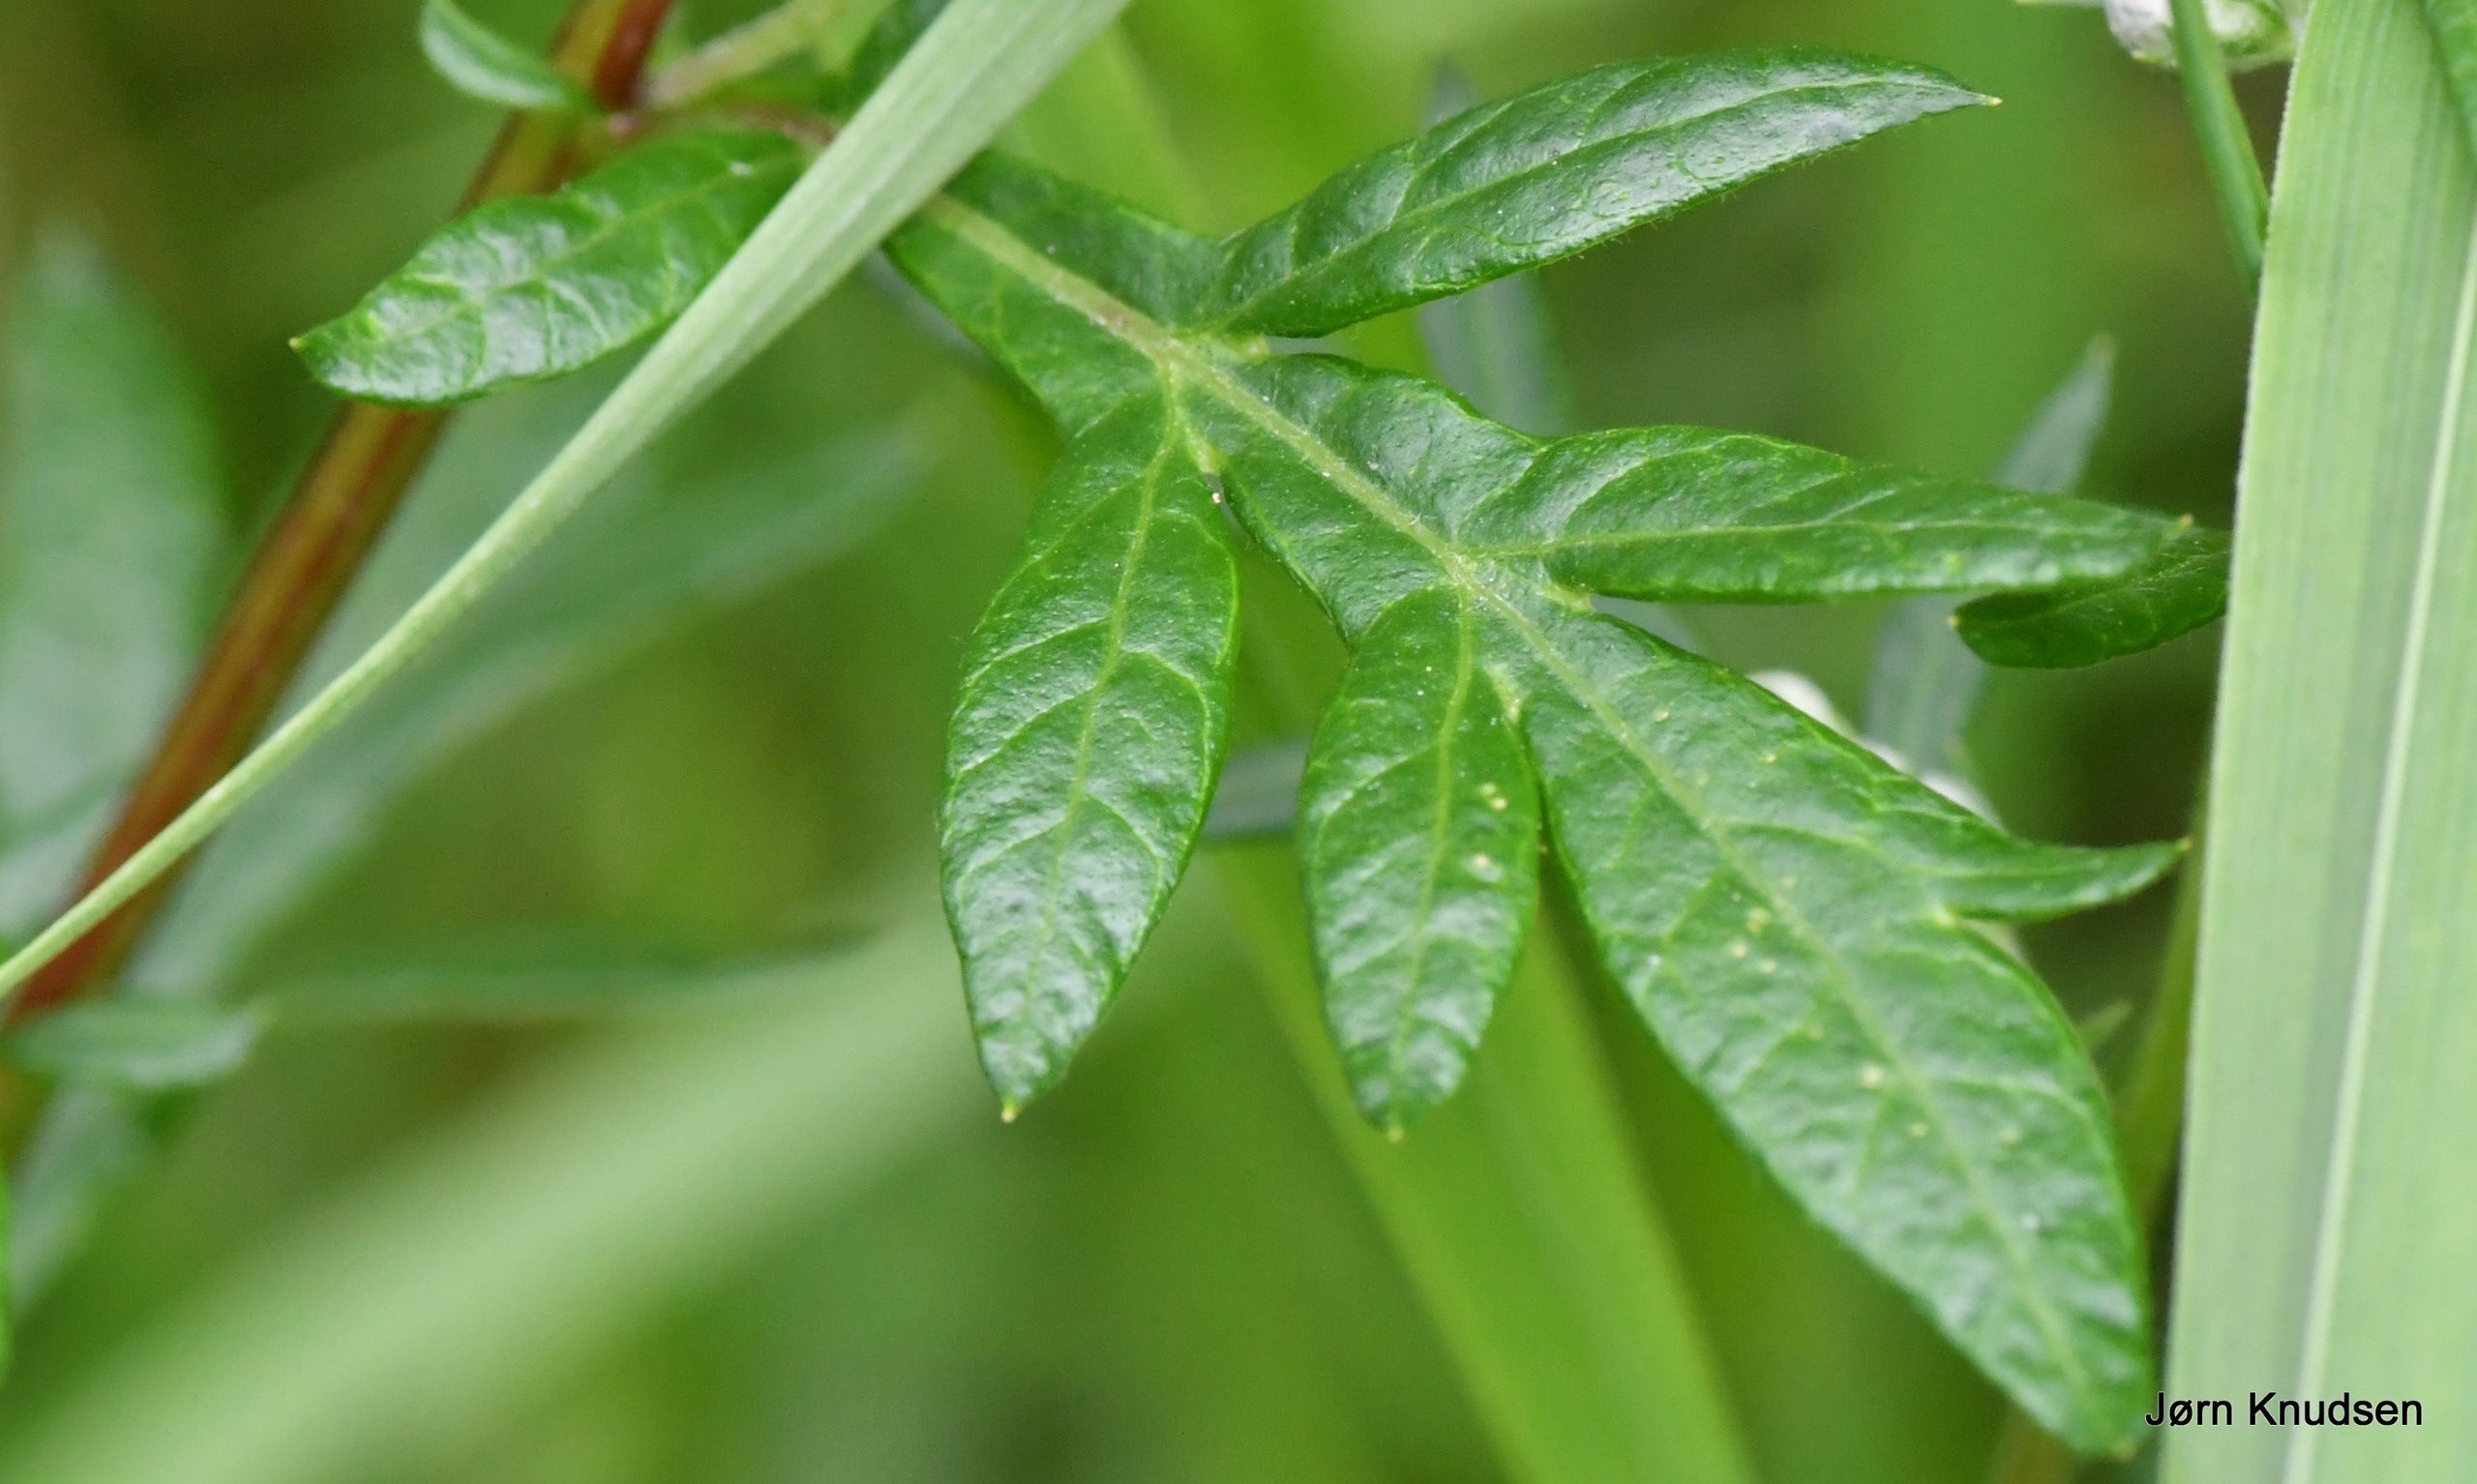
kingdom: Plantae
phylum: Tracheophyta
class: Magnoliopsida
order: Asterales
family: Asteraceae
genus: Artemisia
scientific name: Artemisia vulgaris
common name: Grå-bynke
